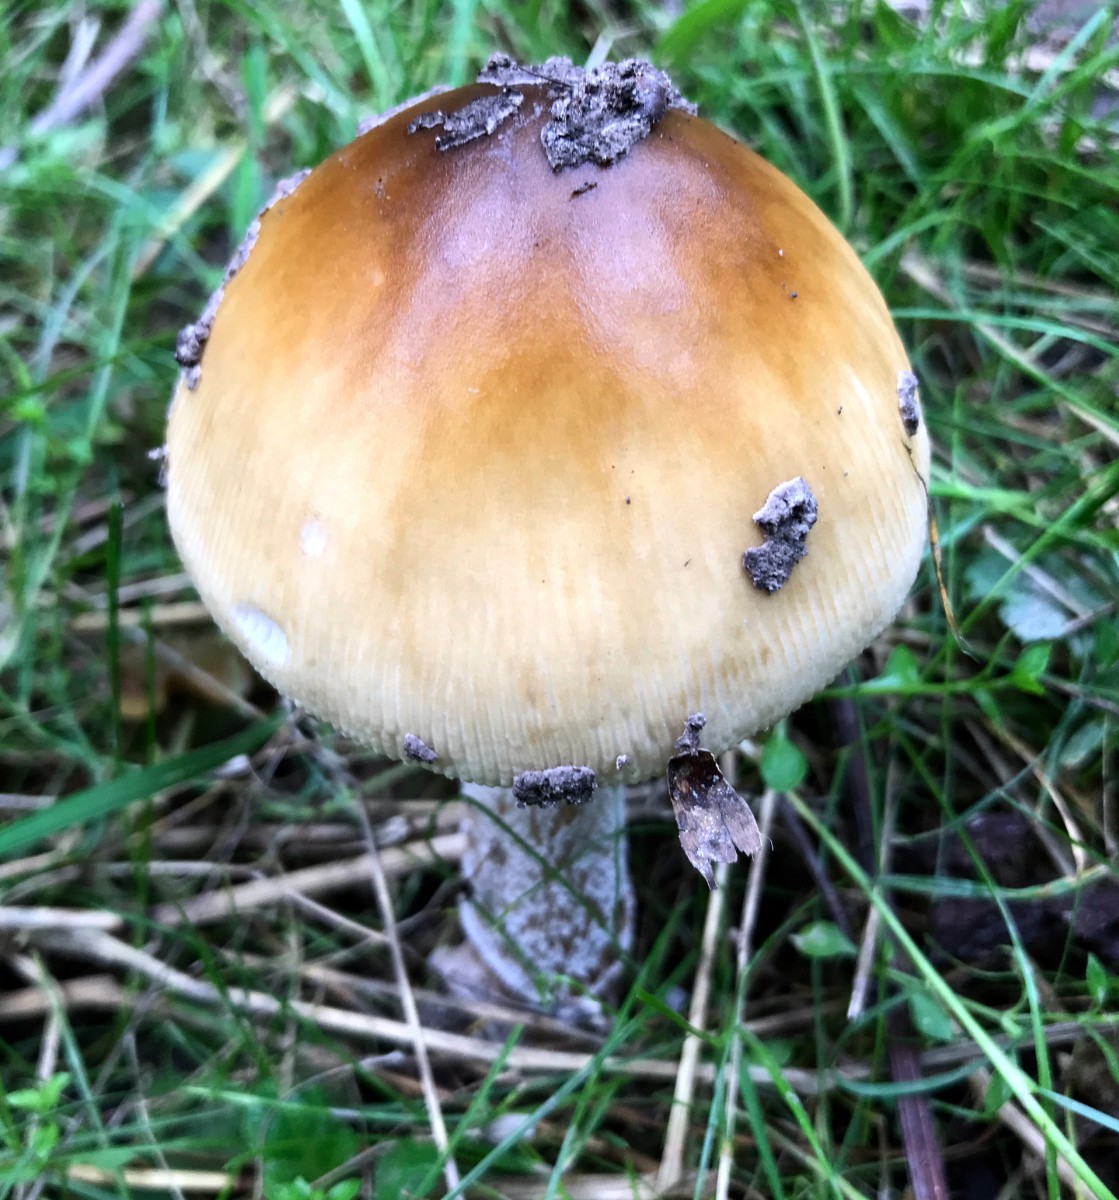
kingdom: Fungi
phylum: Basidiomycota
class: Agaricomycetes
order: Agaricales
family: Amanitaceae
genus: Amanita
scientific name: Amanita ceciliae
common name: stor kam-fluesvamp
